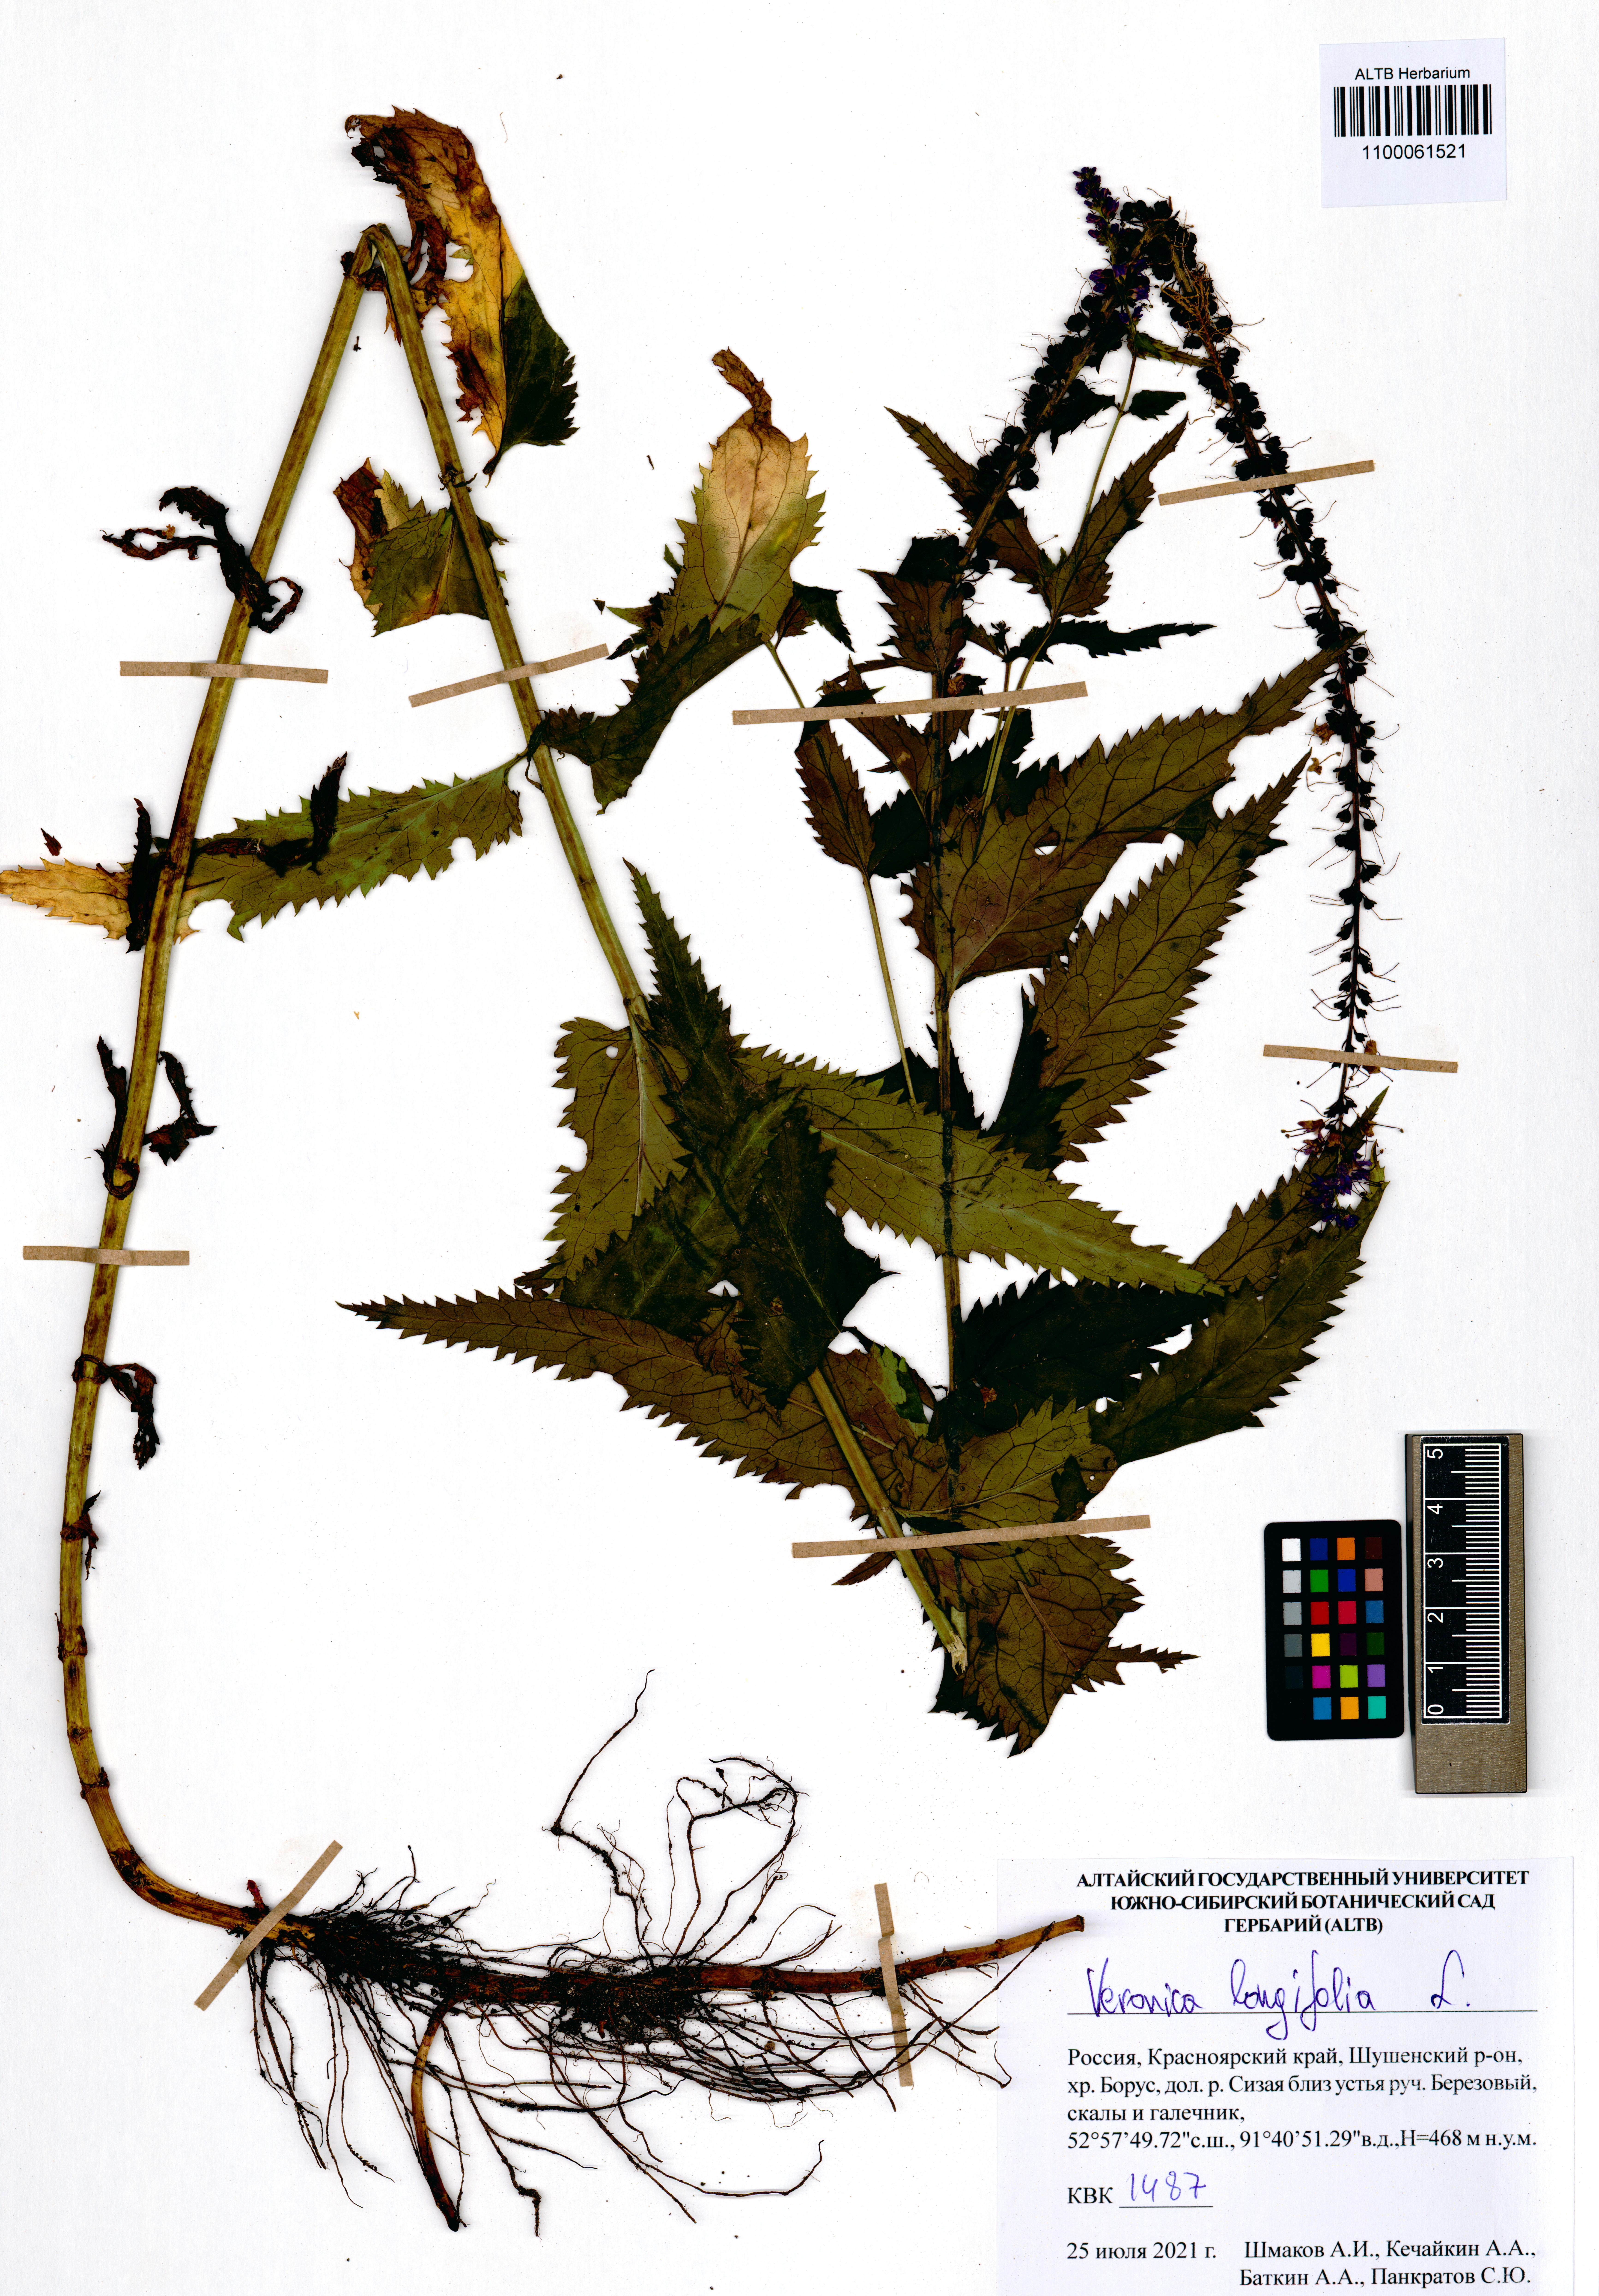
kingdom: Plantae
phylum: Tracheophyta
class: Magnoliopsida
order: Lamiales
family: Plantaginaceae
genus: Veronica
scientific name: Veronica longifolia
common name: Garden speedwell
